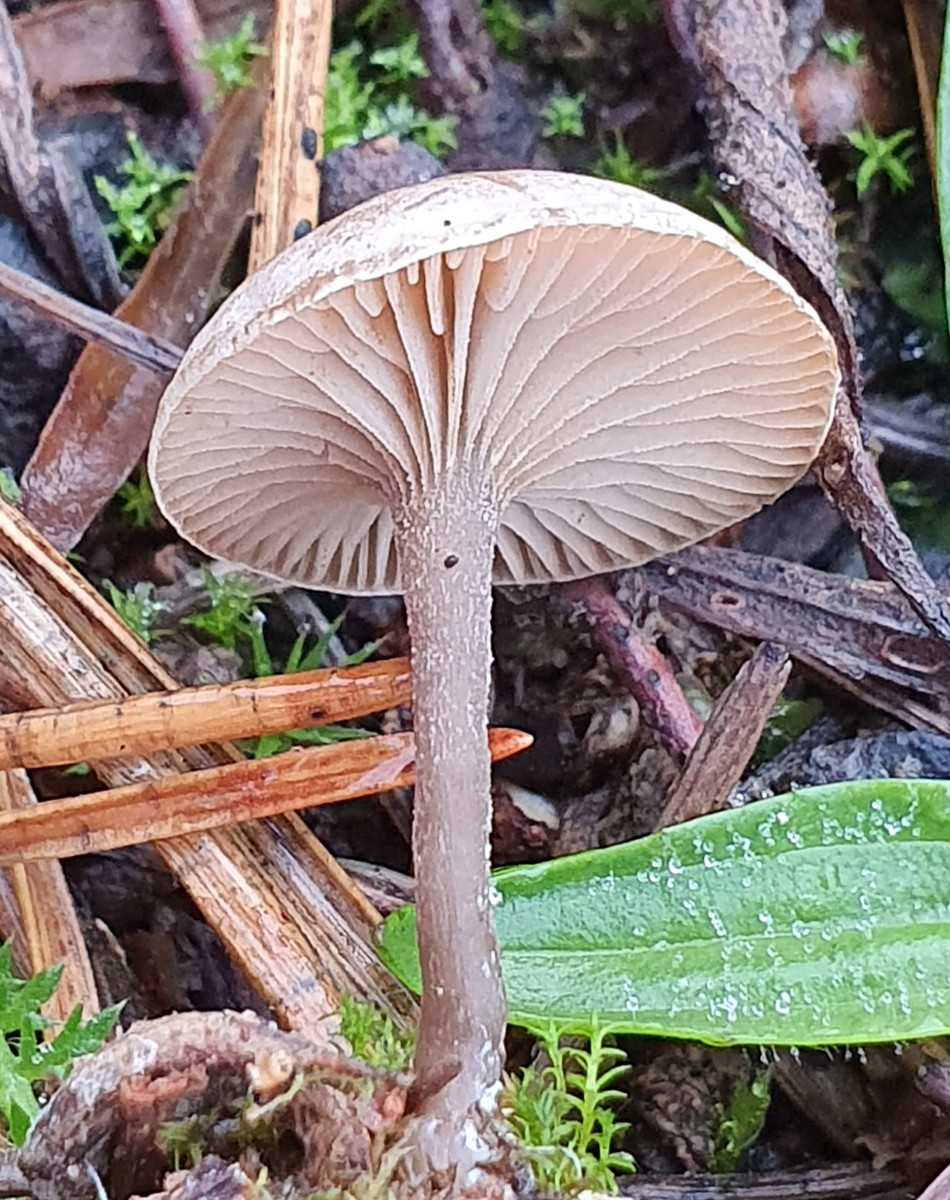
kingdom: Fungi
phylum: Basidiomycota
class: Agaricomycetes
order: Agaricales
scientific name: Agaricales
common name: champignonordenen
